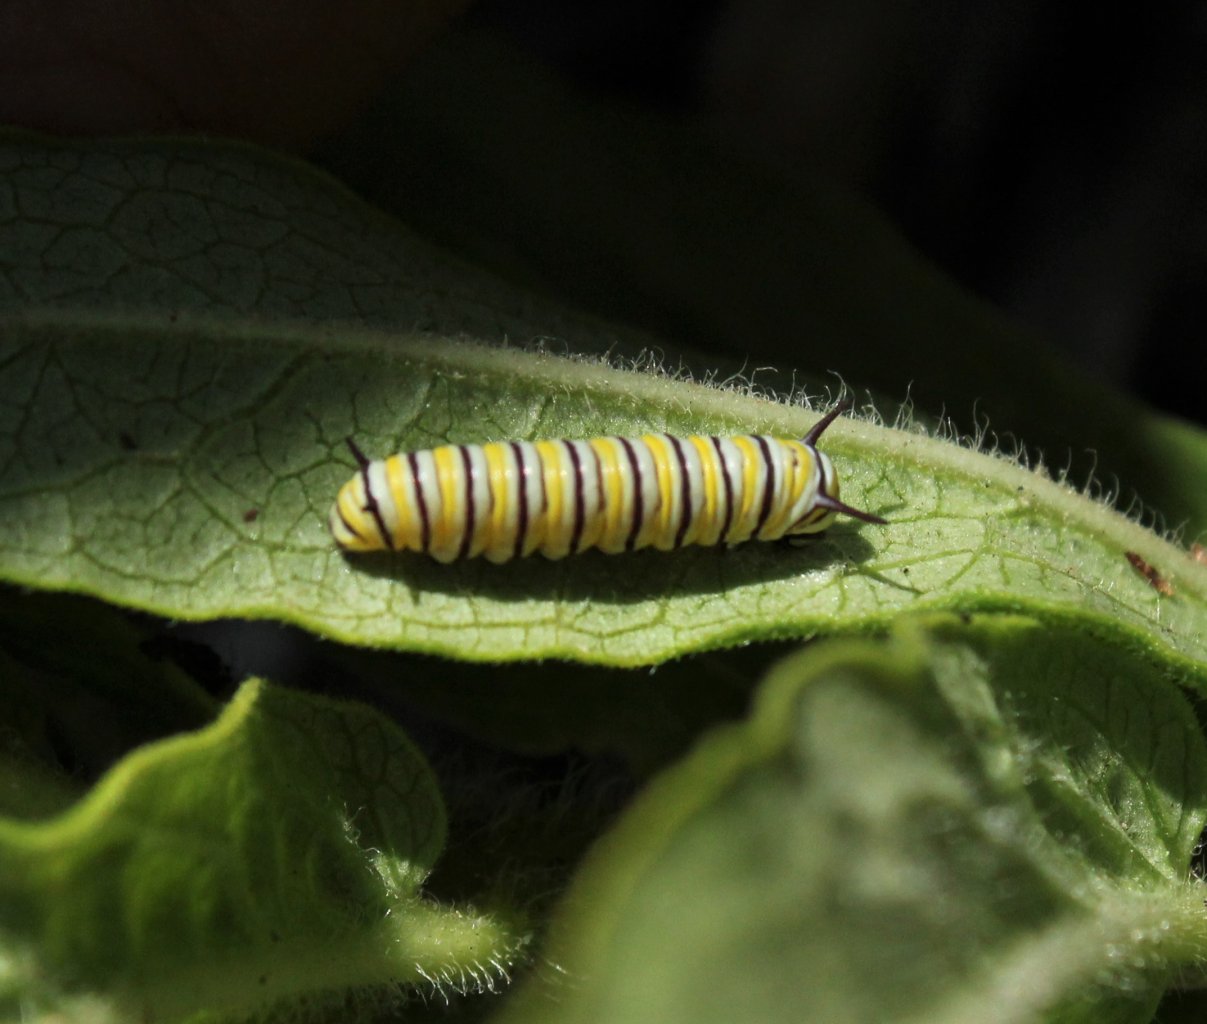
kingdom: Animalia
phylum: Arthropoda
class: Insecta
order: Lepidoptera
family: Nymphalidae
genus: Danaus
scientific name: Danaus plexippus
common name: Monarch
